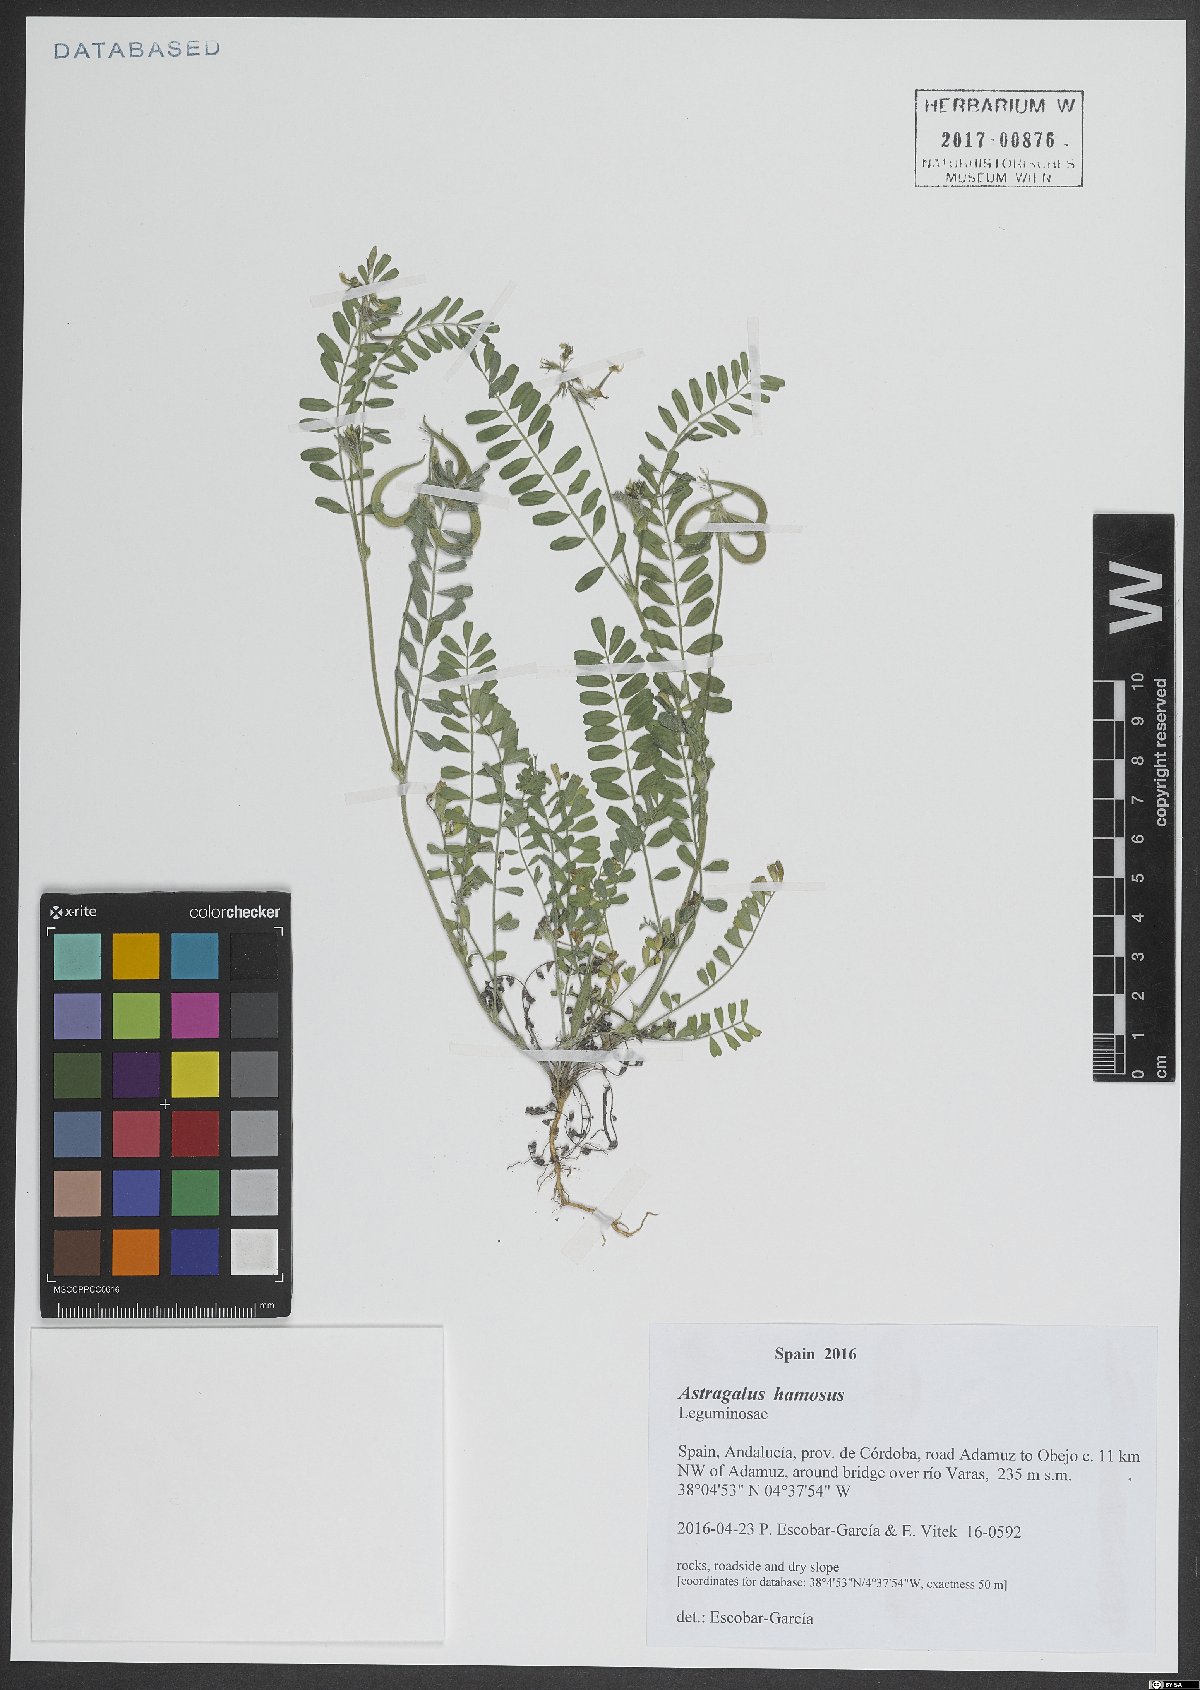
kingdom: Plantae
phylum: Tracheophyta
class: Magnoliopsida
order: Fabales
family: Fabaceae
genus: Astragalus
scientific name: Astragalus hamosus
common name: European milkvetch
